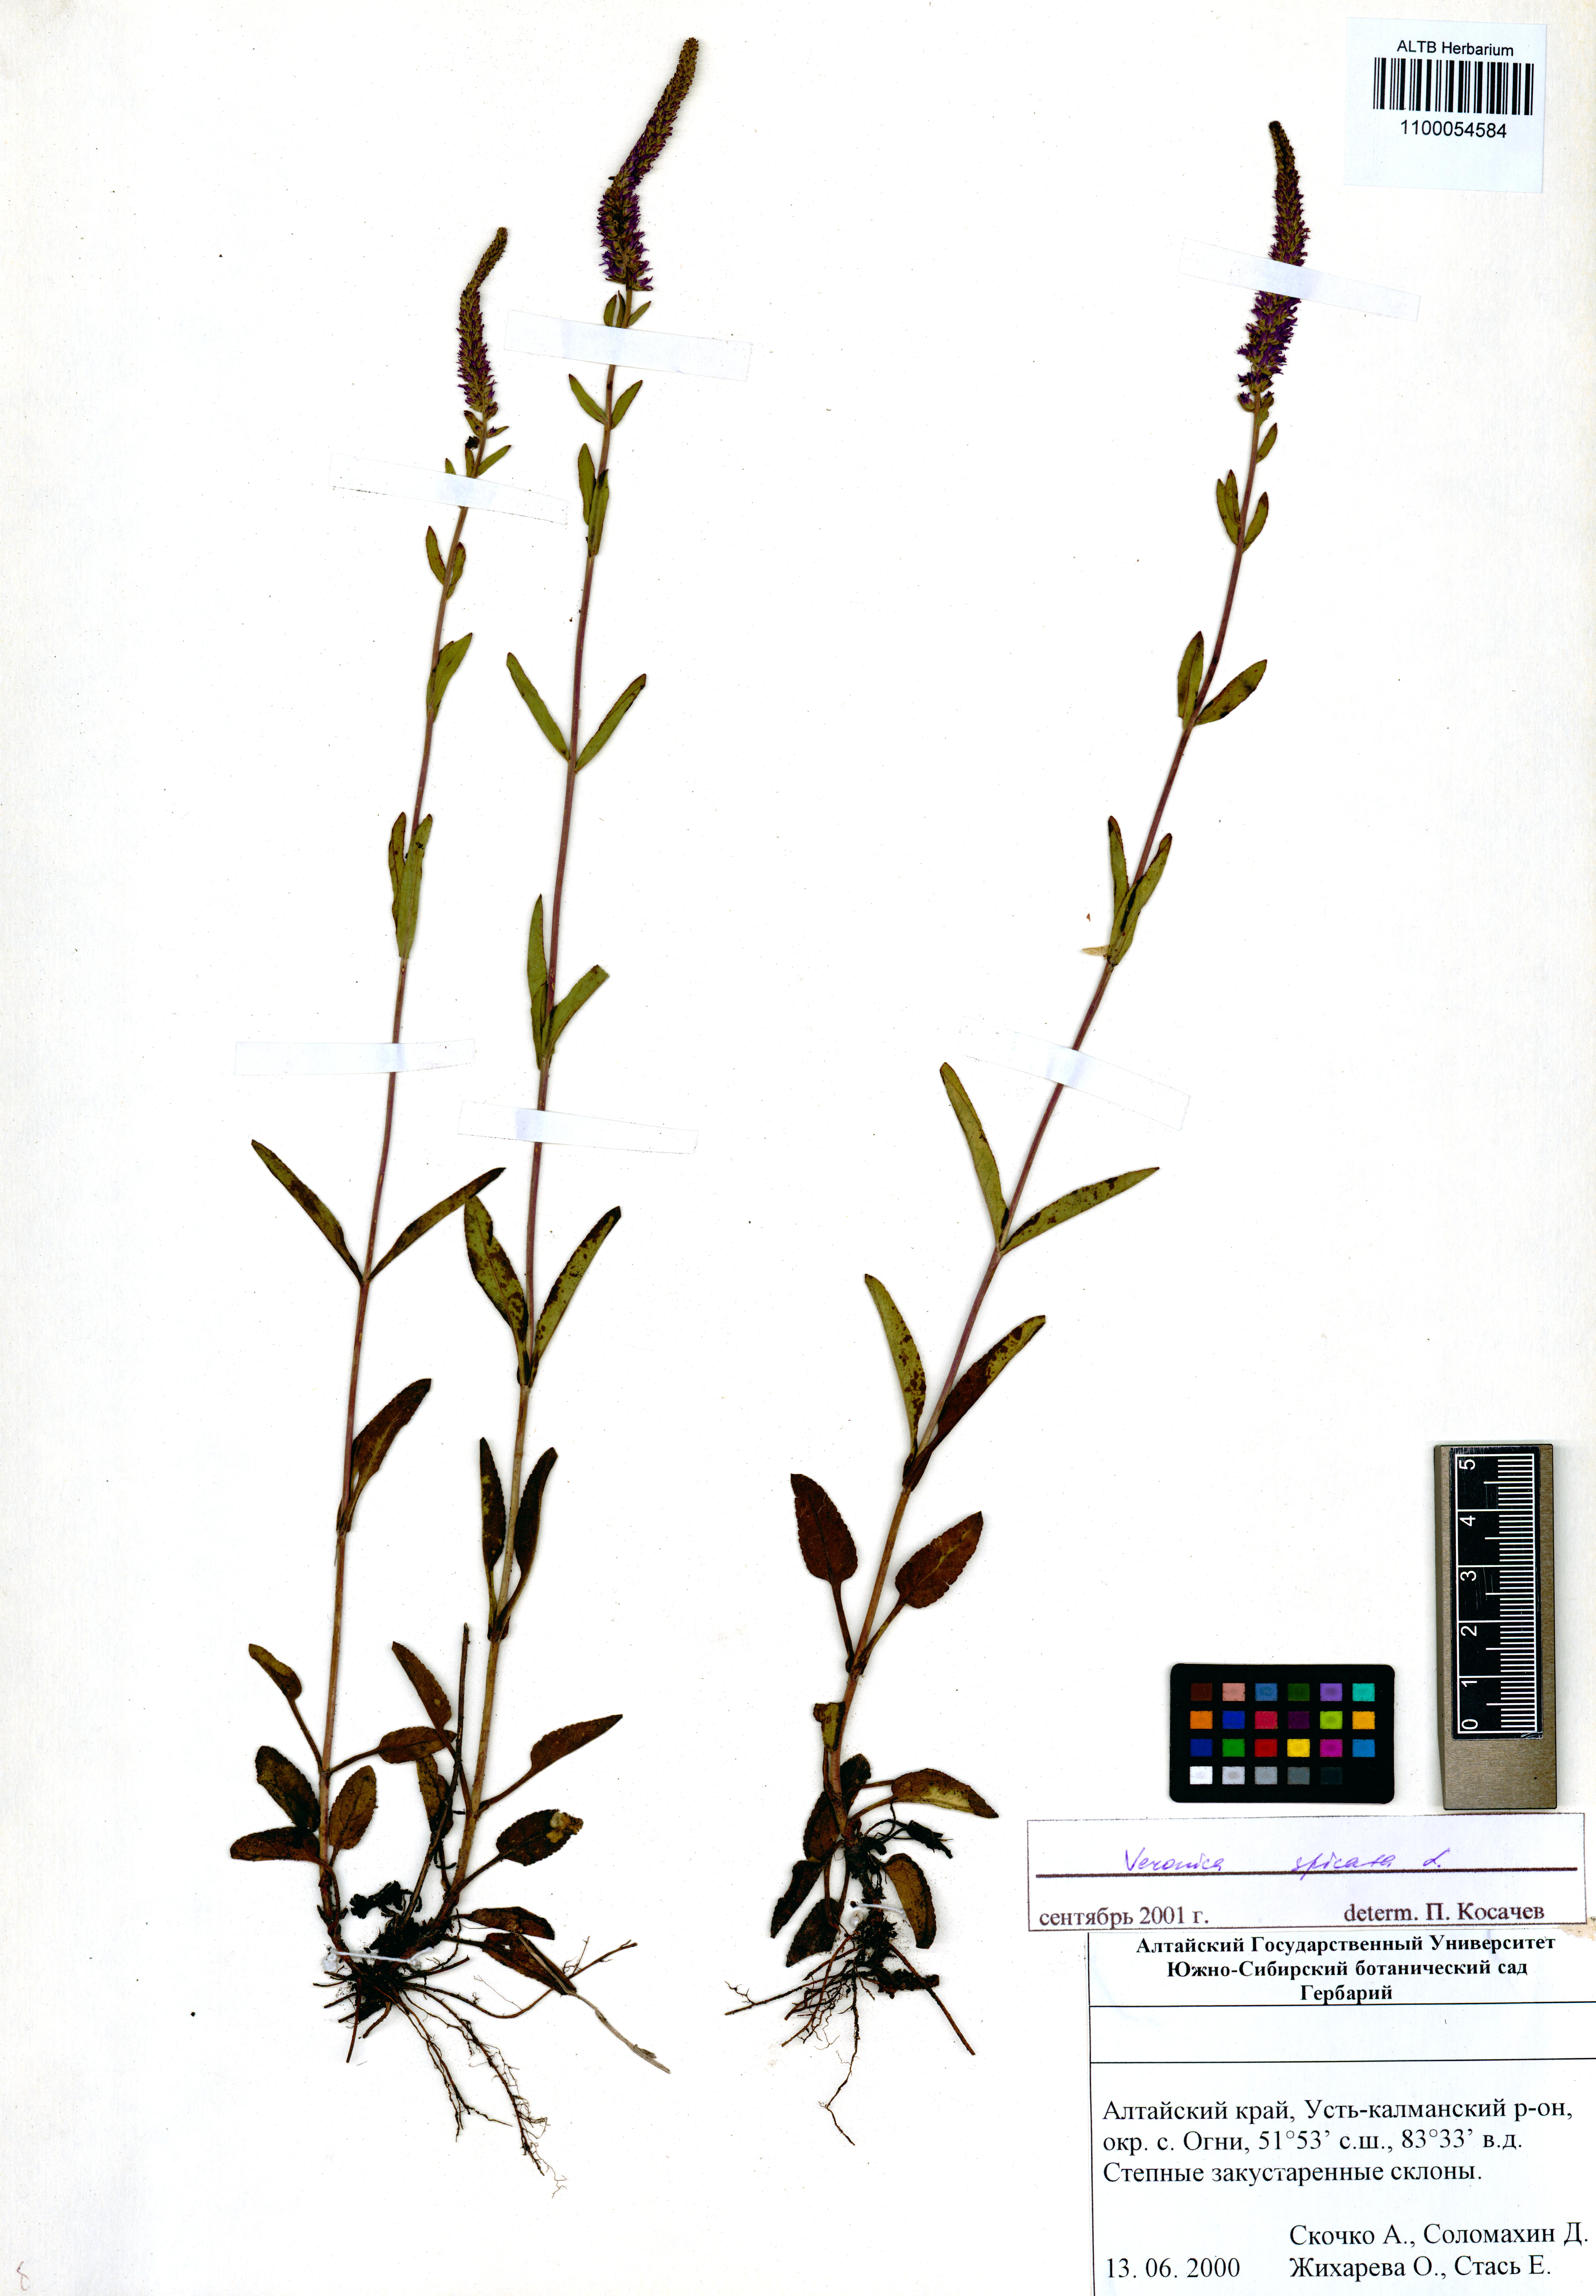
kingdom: Plantae
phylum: Tracheophyta
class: Magnoliopsida
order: Lamiales
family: Plantaginaceae
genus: Veronica
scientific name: Veronica spicata
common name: Spiked speedwell
